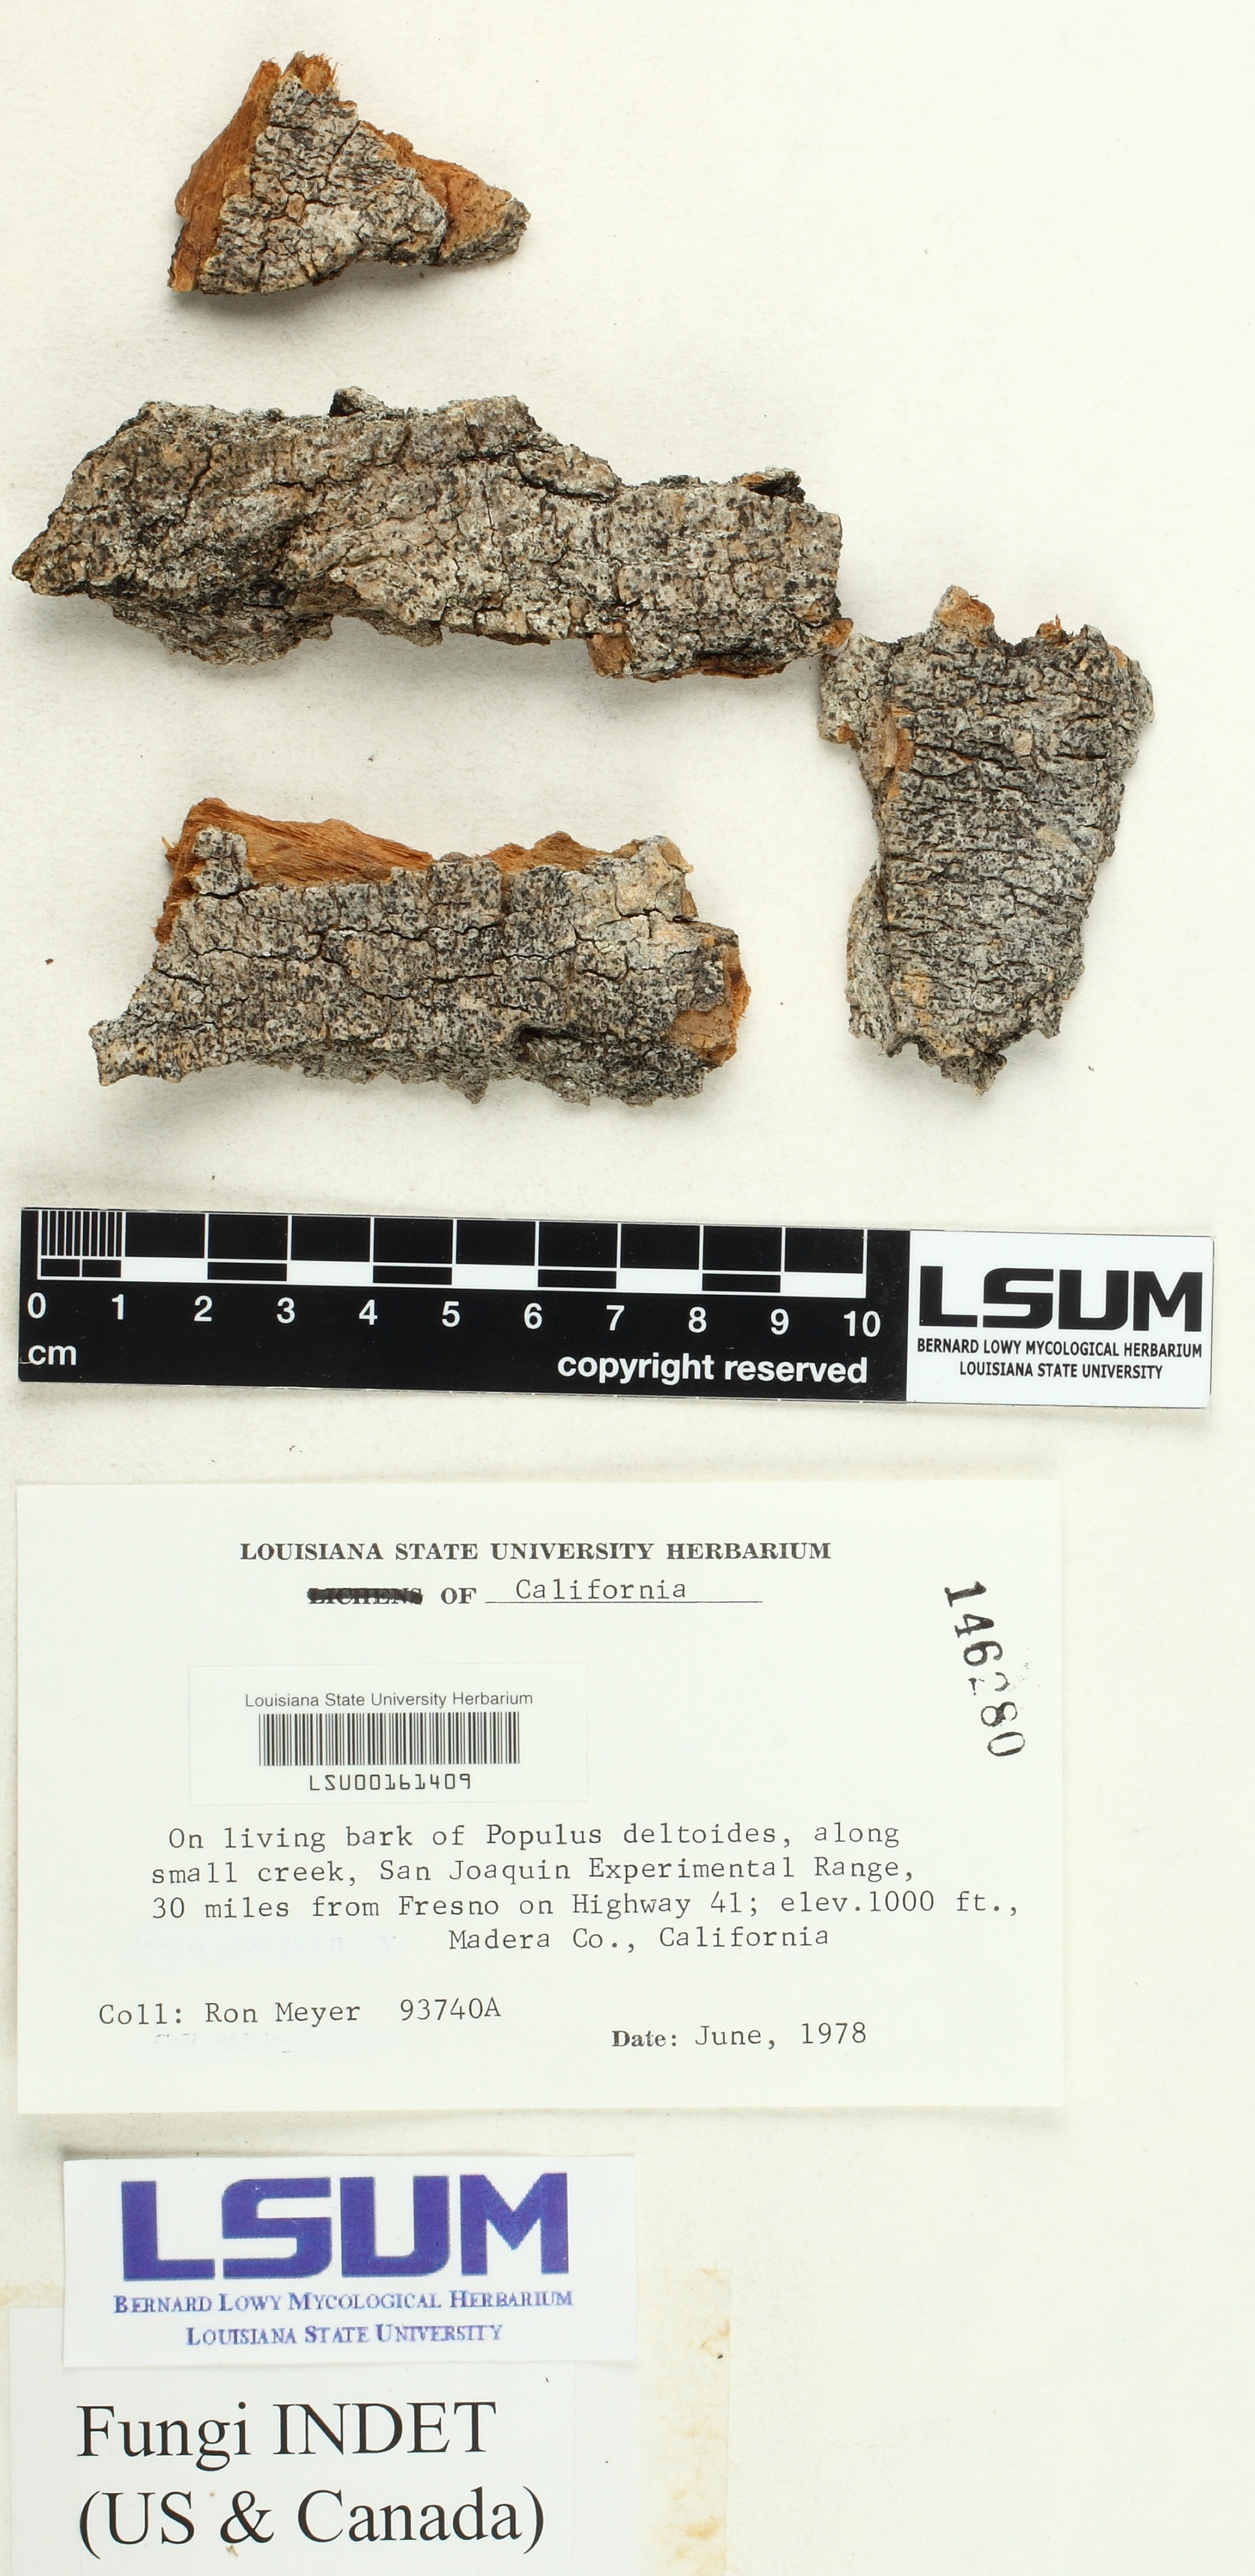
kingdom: Fungi
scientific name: Fungi
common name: Fungi
